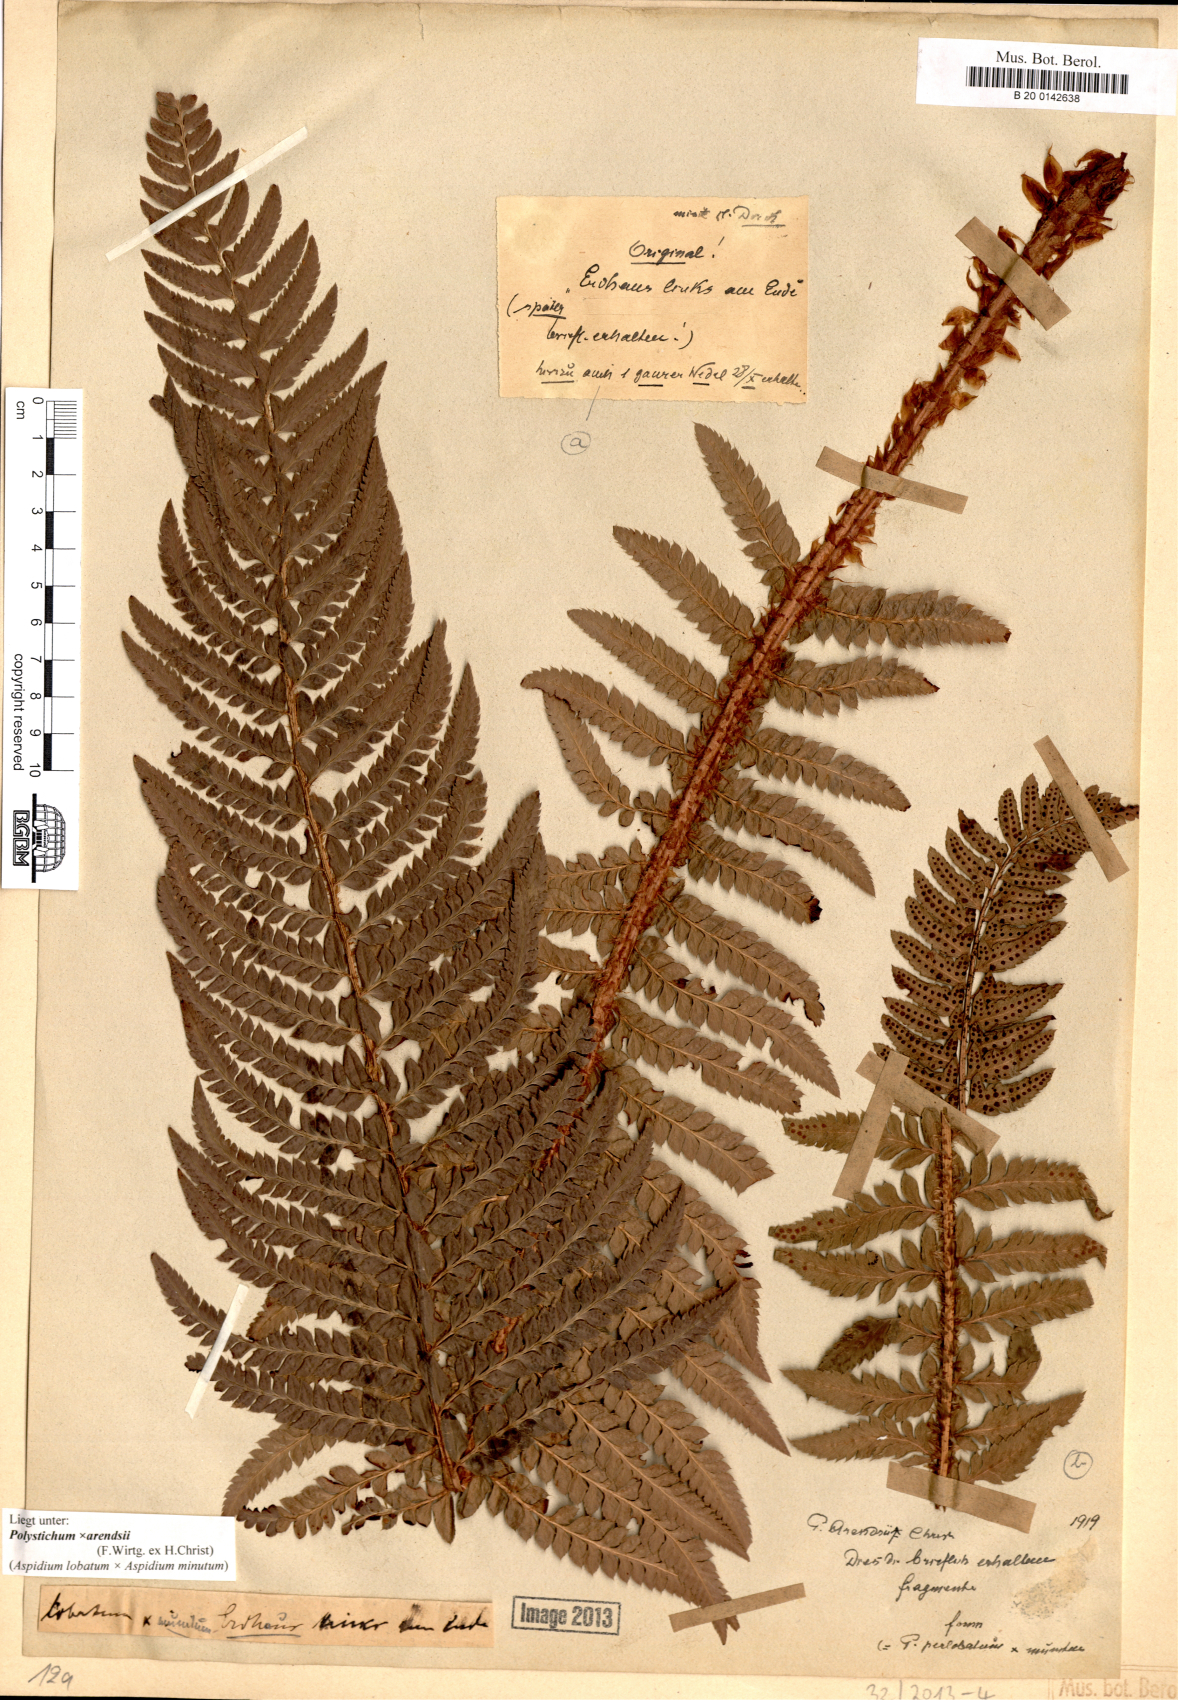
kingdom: Plantae
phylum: Tracheophyta
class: Polypodiopsida
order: Polypodiales
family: Dryopteridaceae
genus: Polystichum
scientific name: Polystichum
